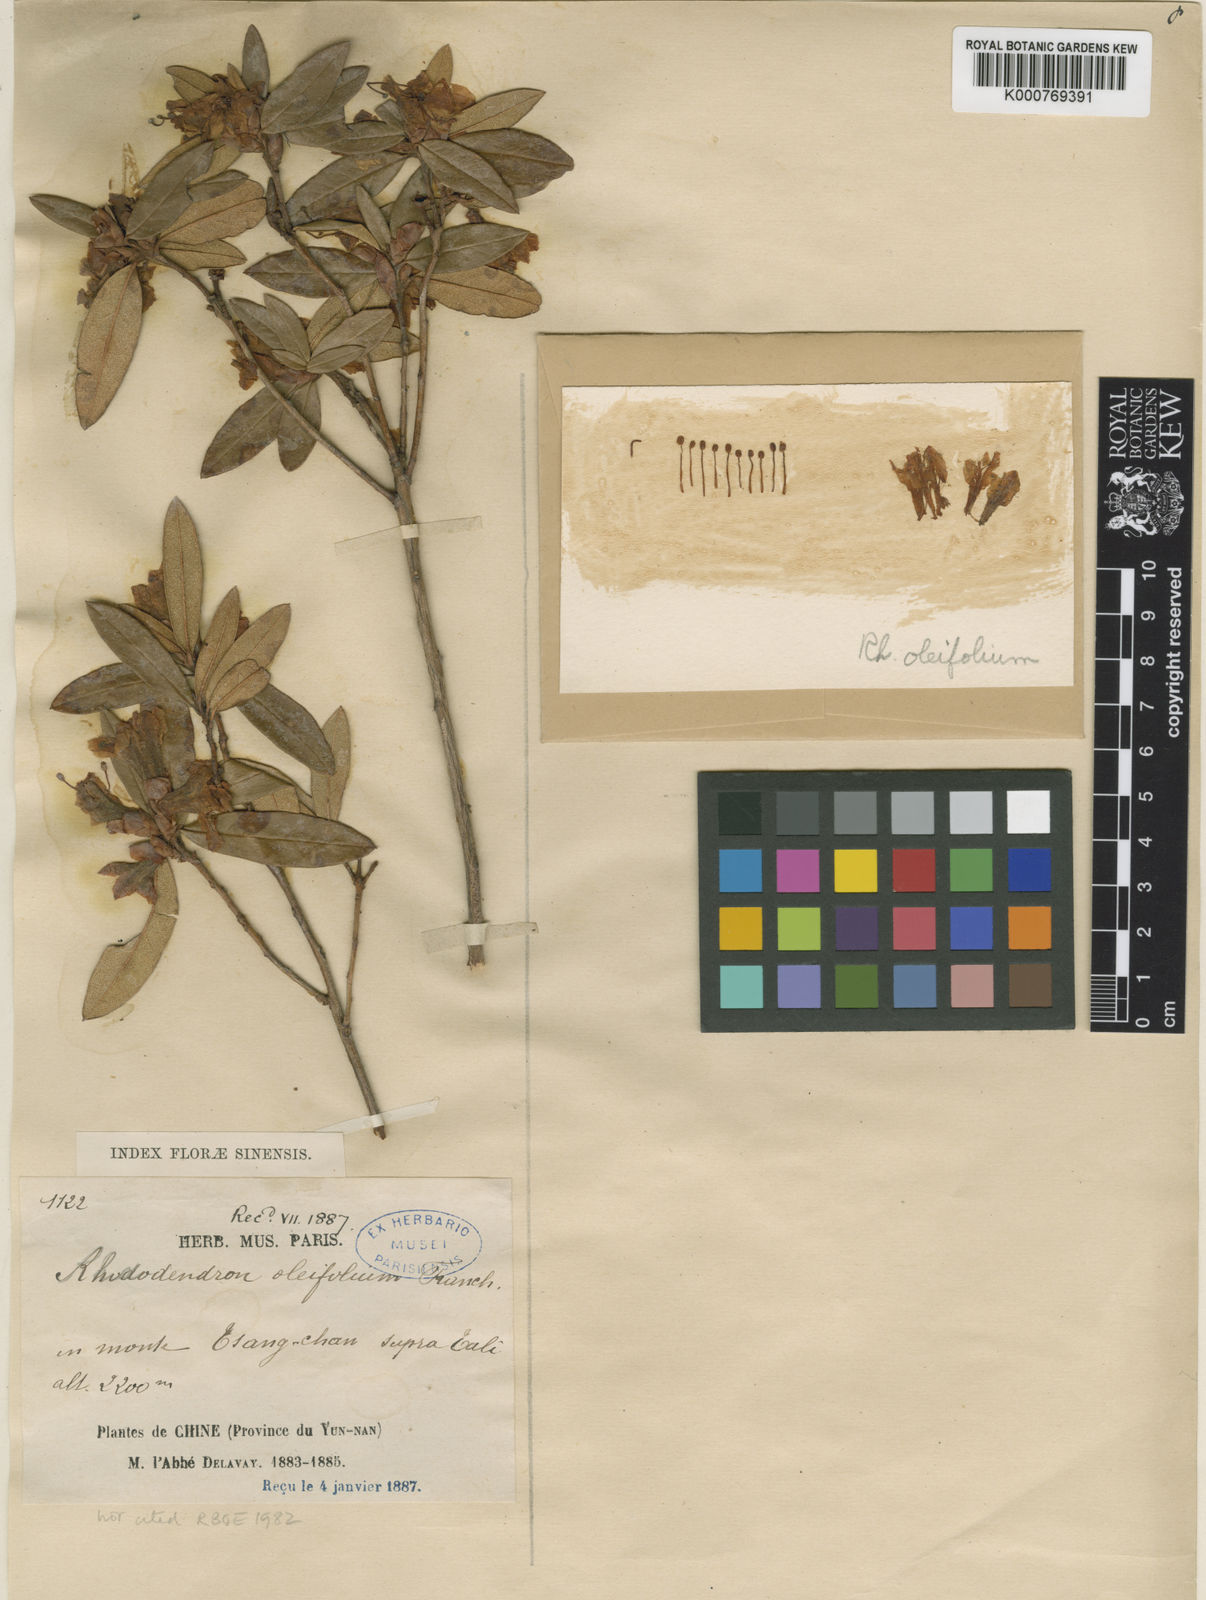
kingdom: Plantae
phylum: Tracheophyta
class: Magnoliopsida
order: Ericales
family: Ericaceae
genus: Rhododendron
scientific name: Rhododendron virgatum
